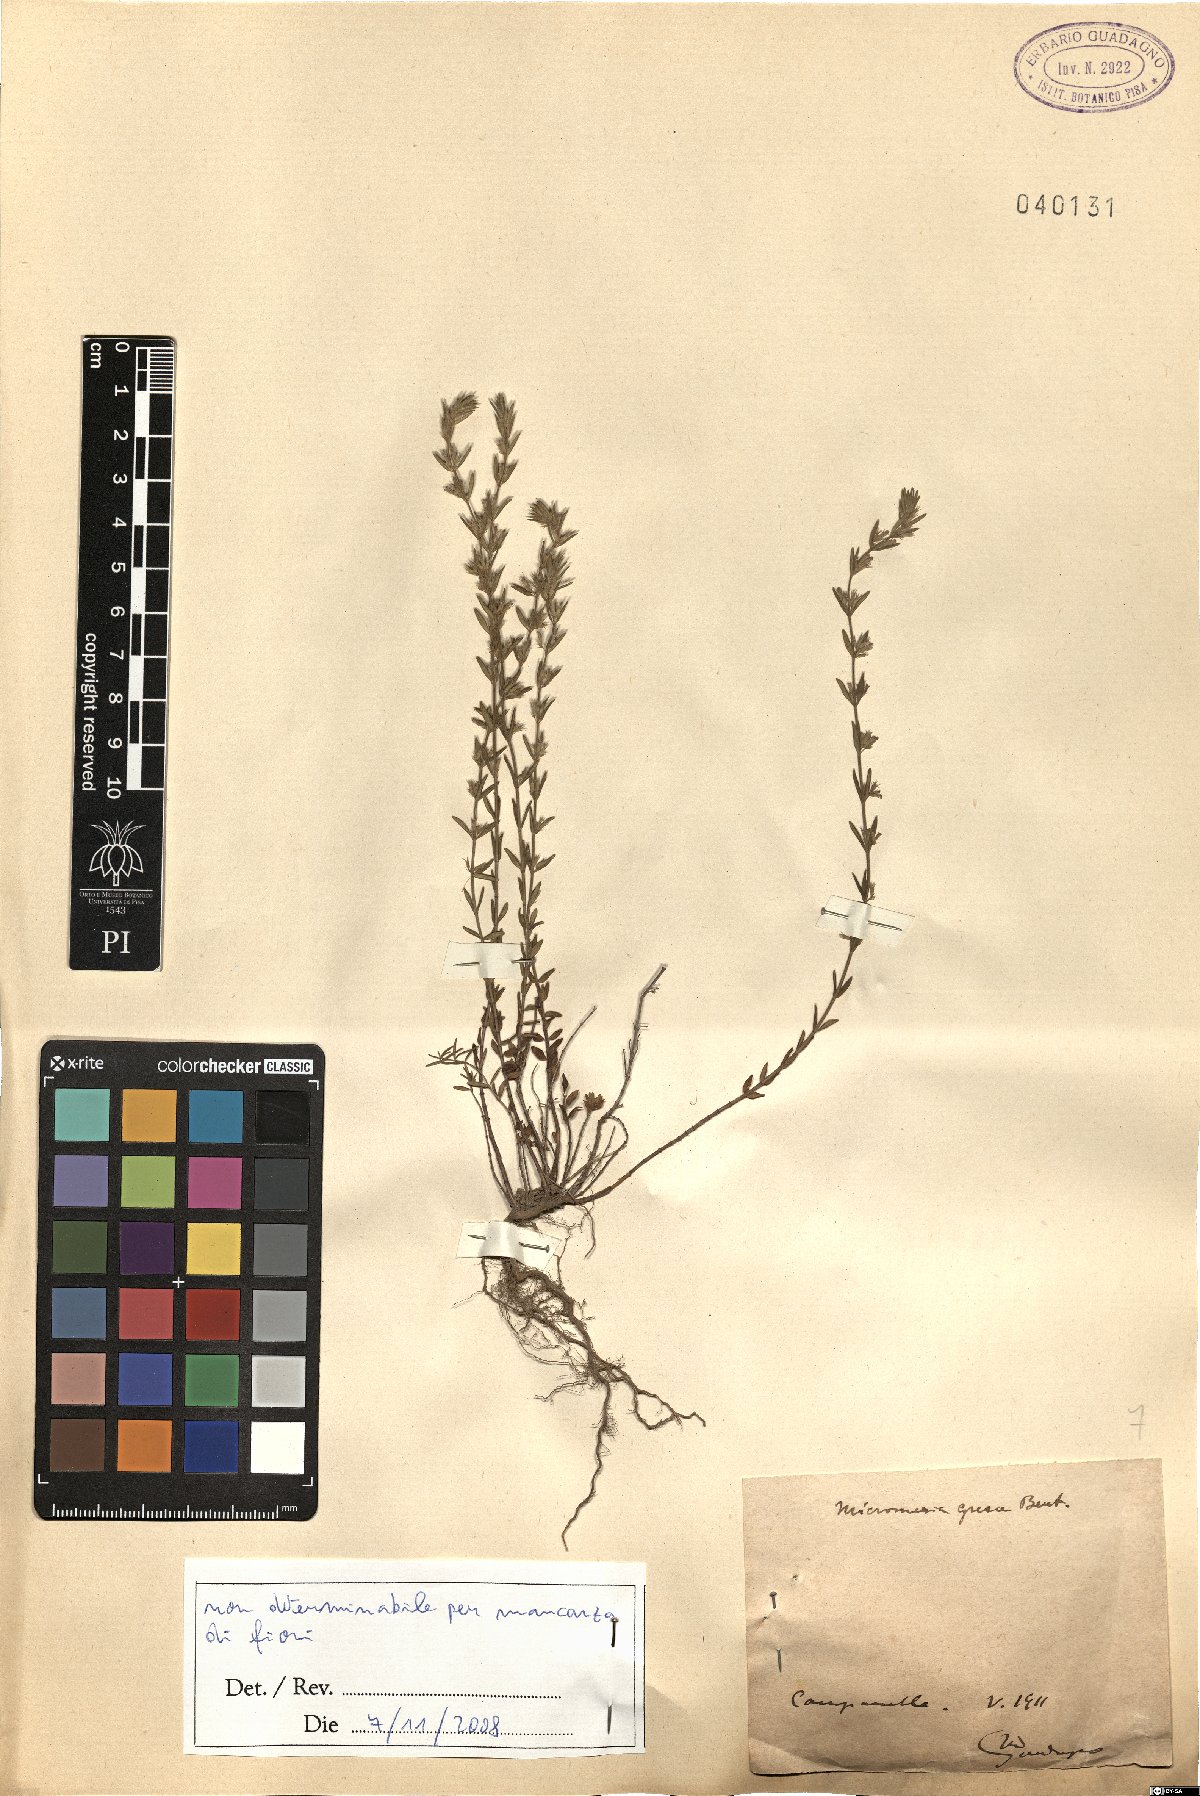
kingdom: Plantae
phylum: Tracheophyta
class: Magnoliopsida
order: Lamiales
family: Lamiaceae
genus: Micromeria
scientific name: Micromeria graeca
